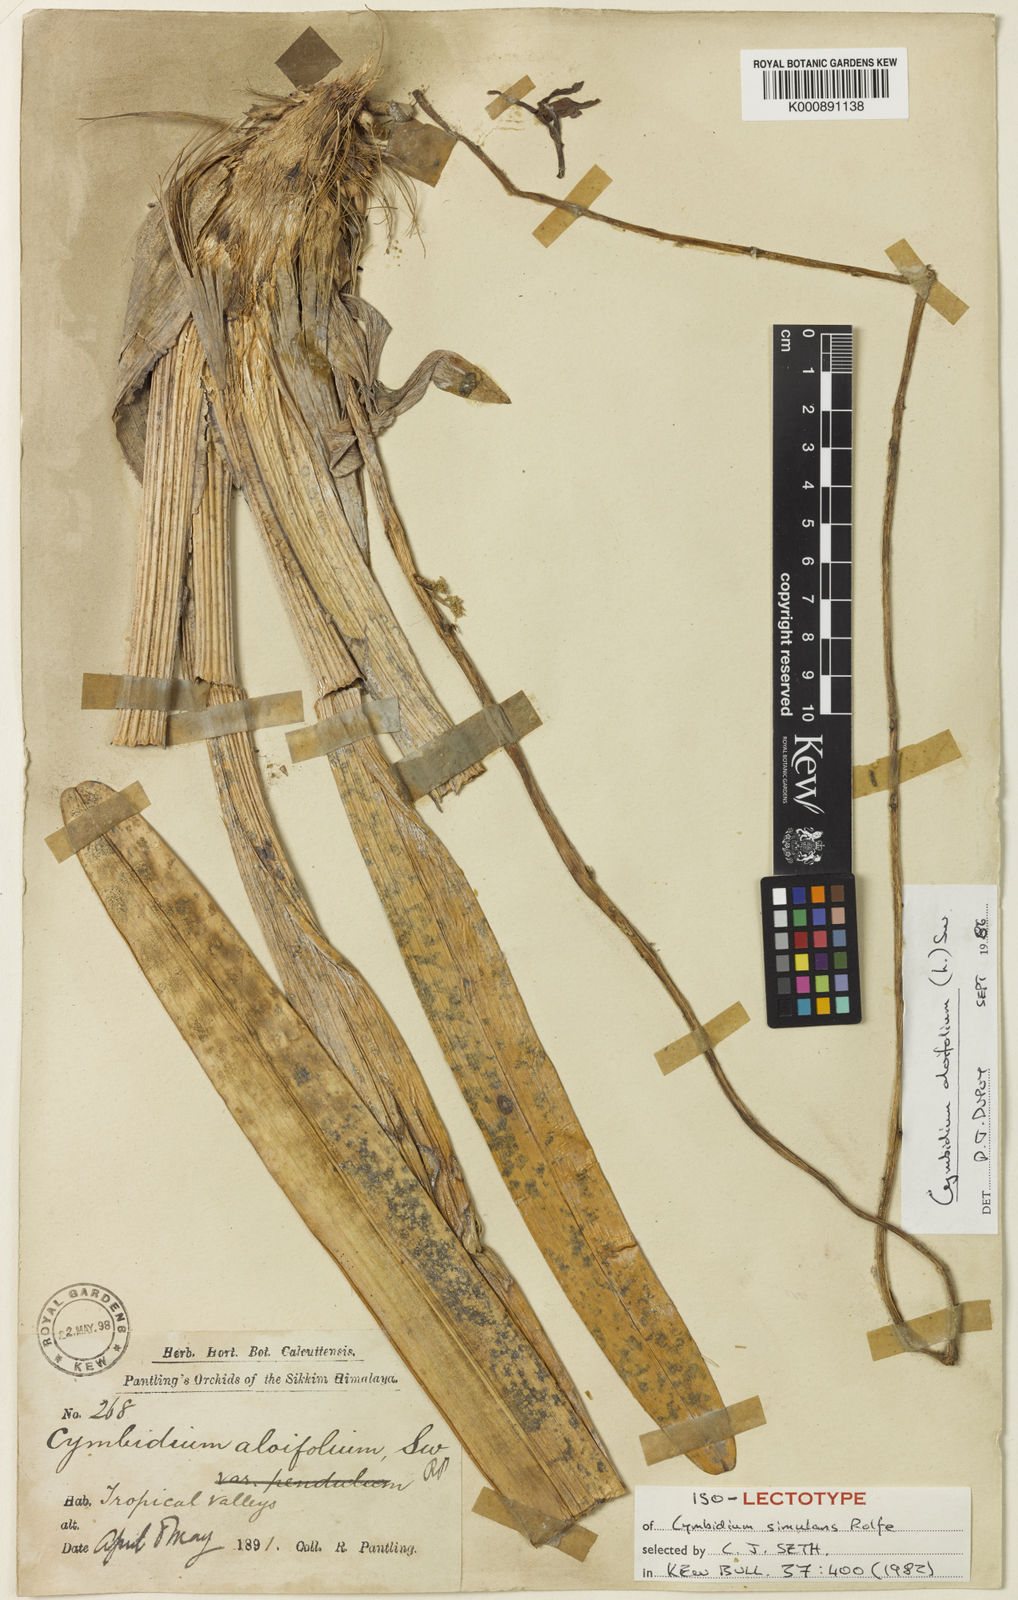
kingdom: Plantae
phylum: Tracheophyta
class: Liliopsida
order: Asparagales
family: Orchidaceae
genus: Cymbidium
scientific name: Cymbidium aloifolium
